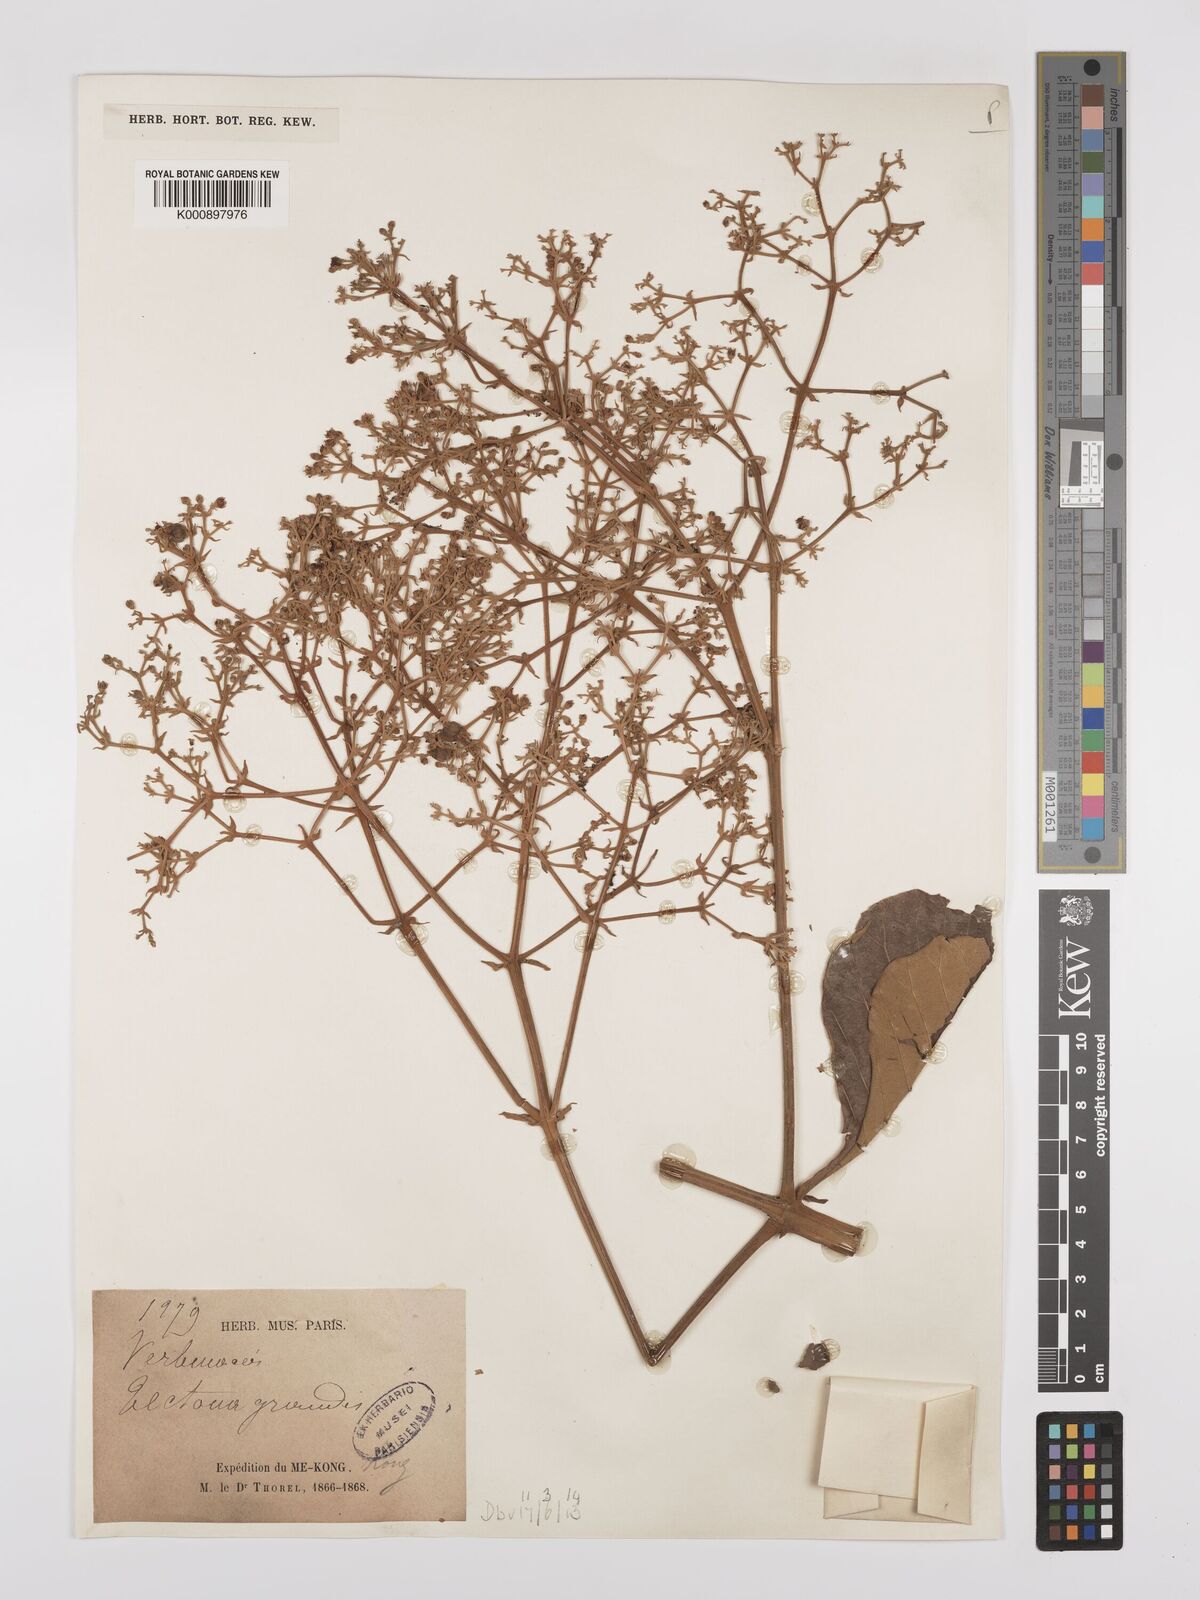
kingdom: Plantae
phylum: Tracheophyta
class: Magnoliopsida
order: Lamiales
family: Lamiaceae
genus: Tectona
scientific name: Tectona grandis
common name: Teak
